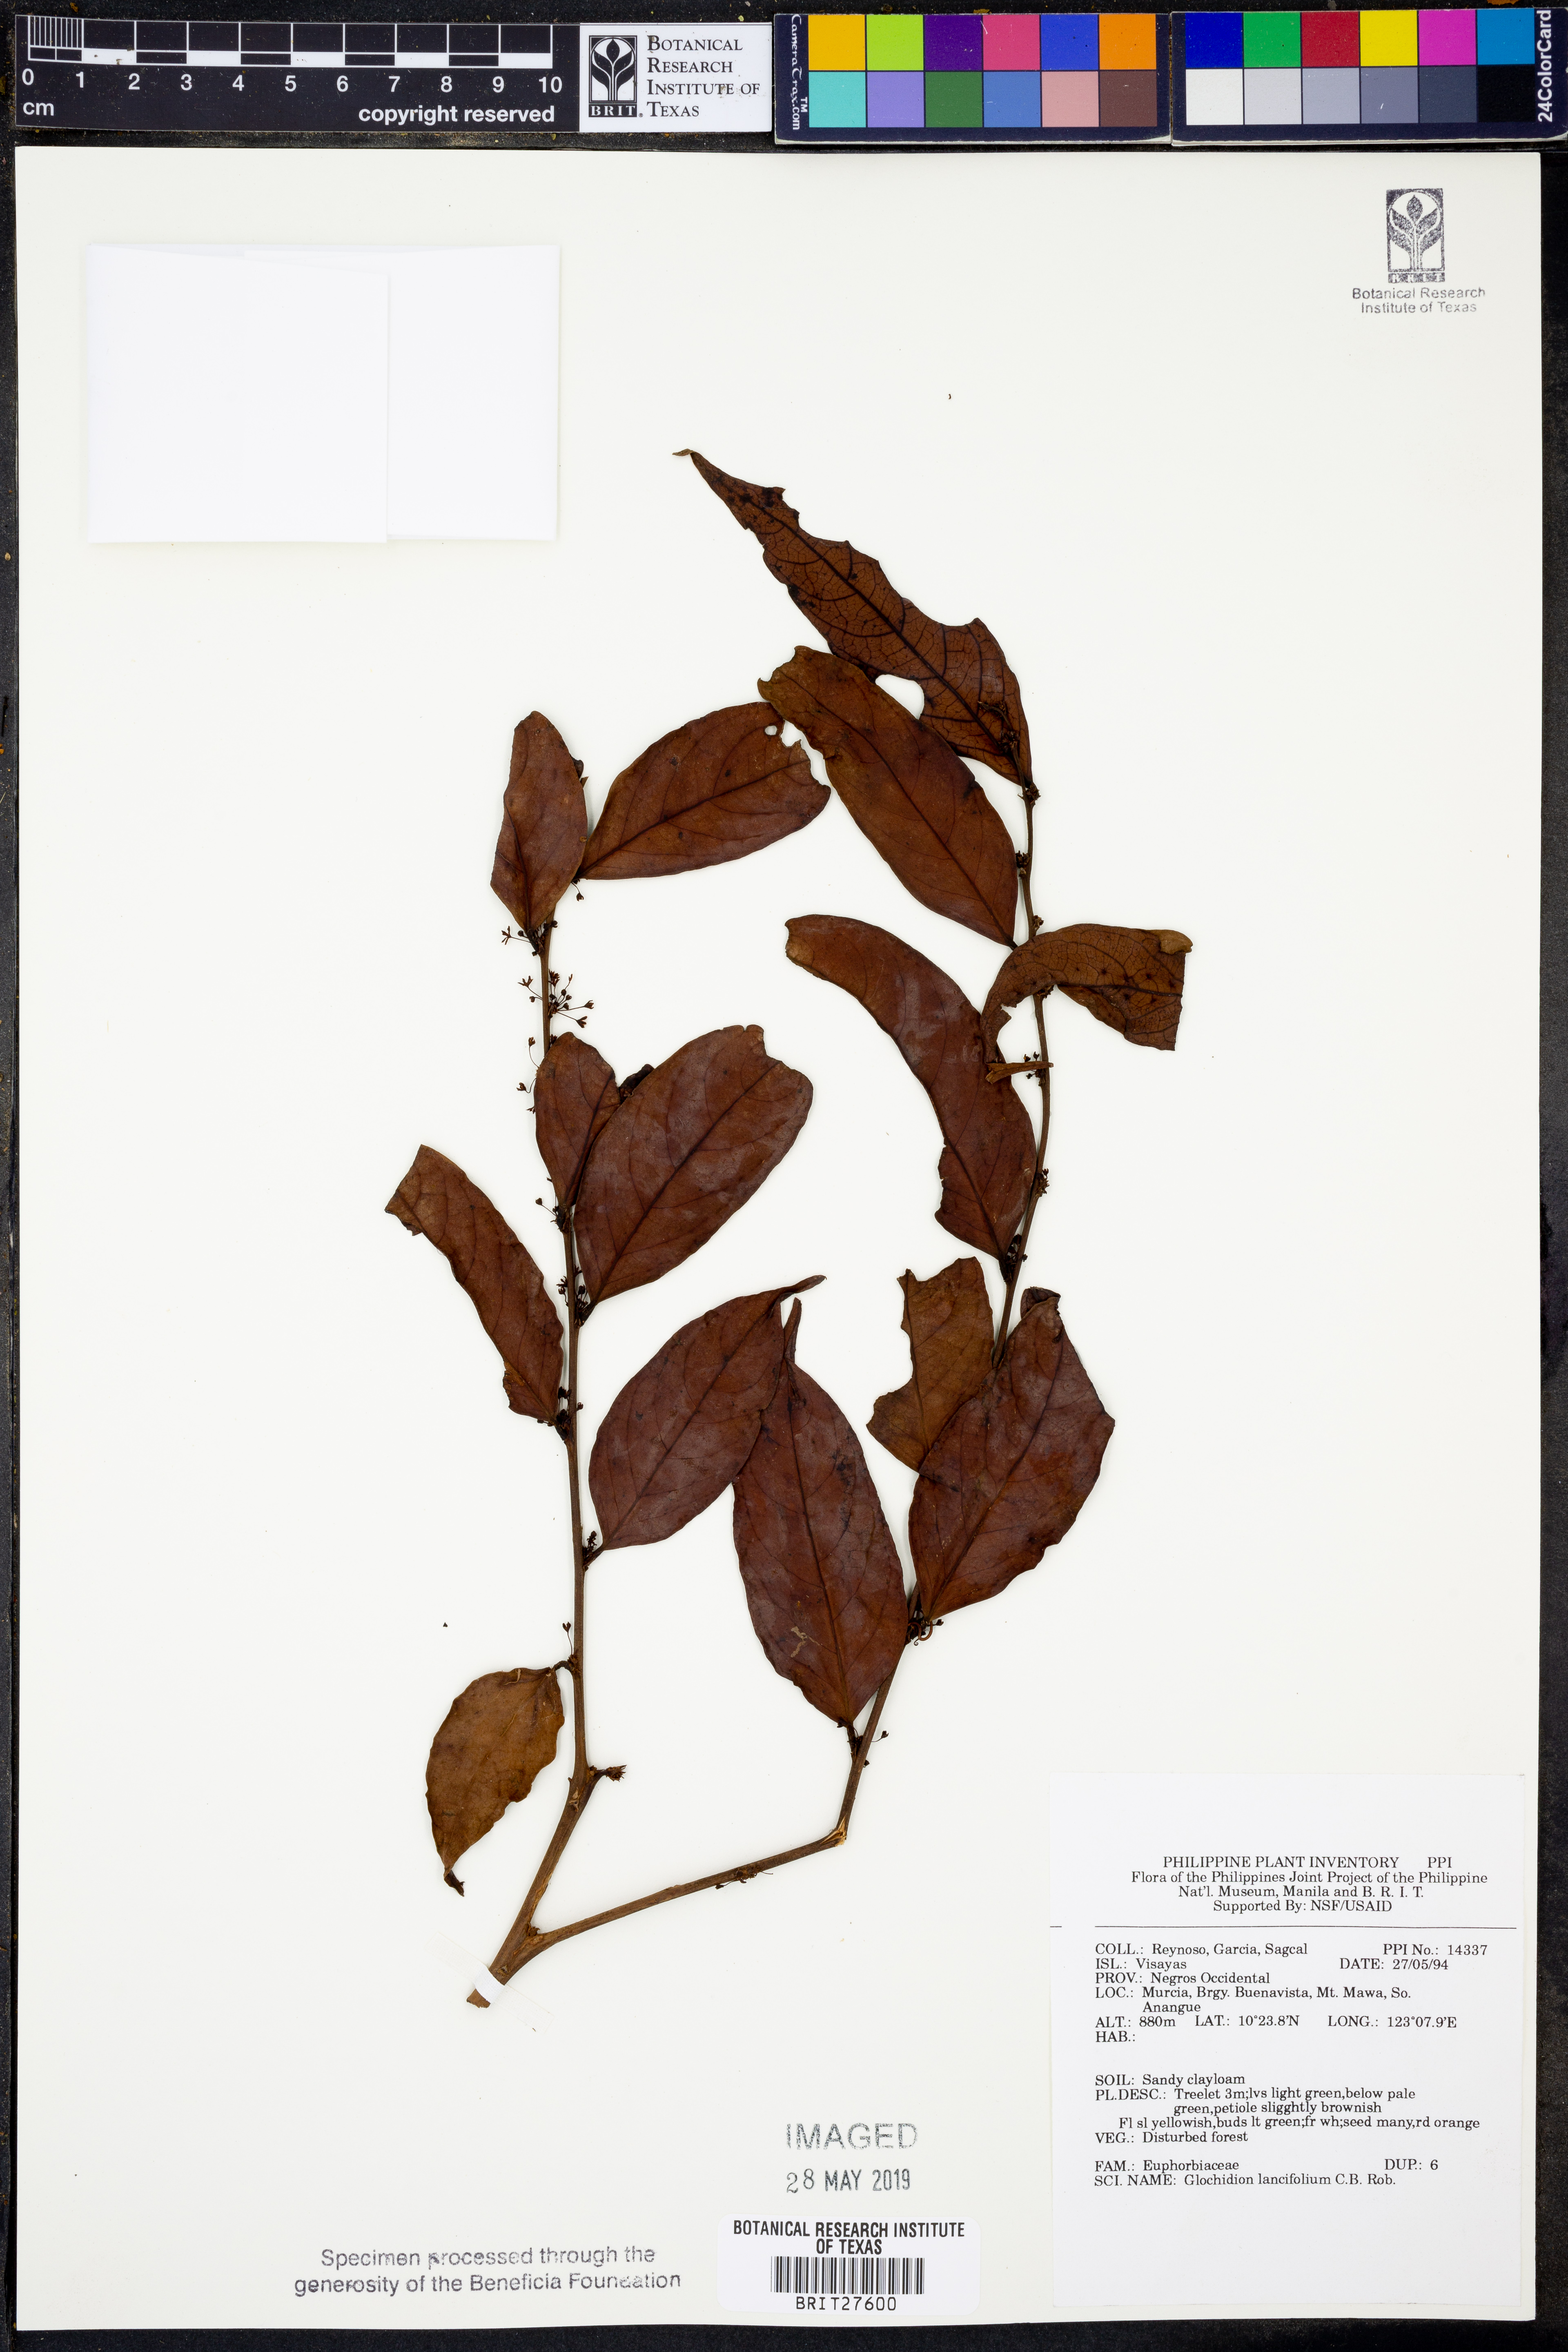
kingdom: Plantae
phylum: Tracheophyta
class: Magnoliopsida
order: Malpighiales
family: Phyllanthaceae
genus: Glochidion
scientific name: Glochidion urophylloides
